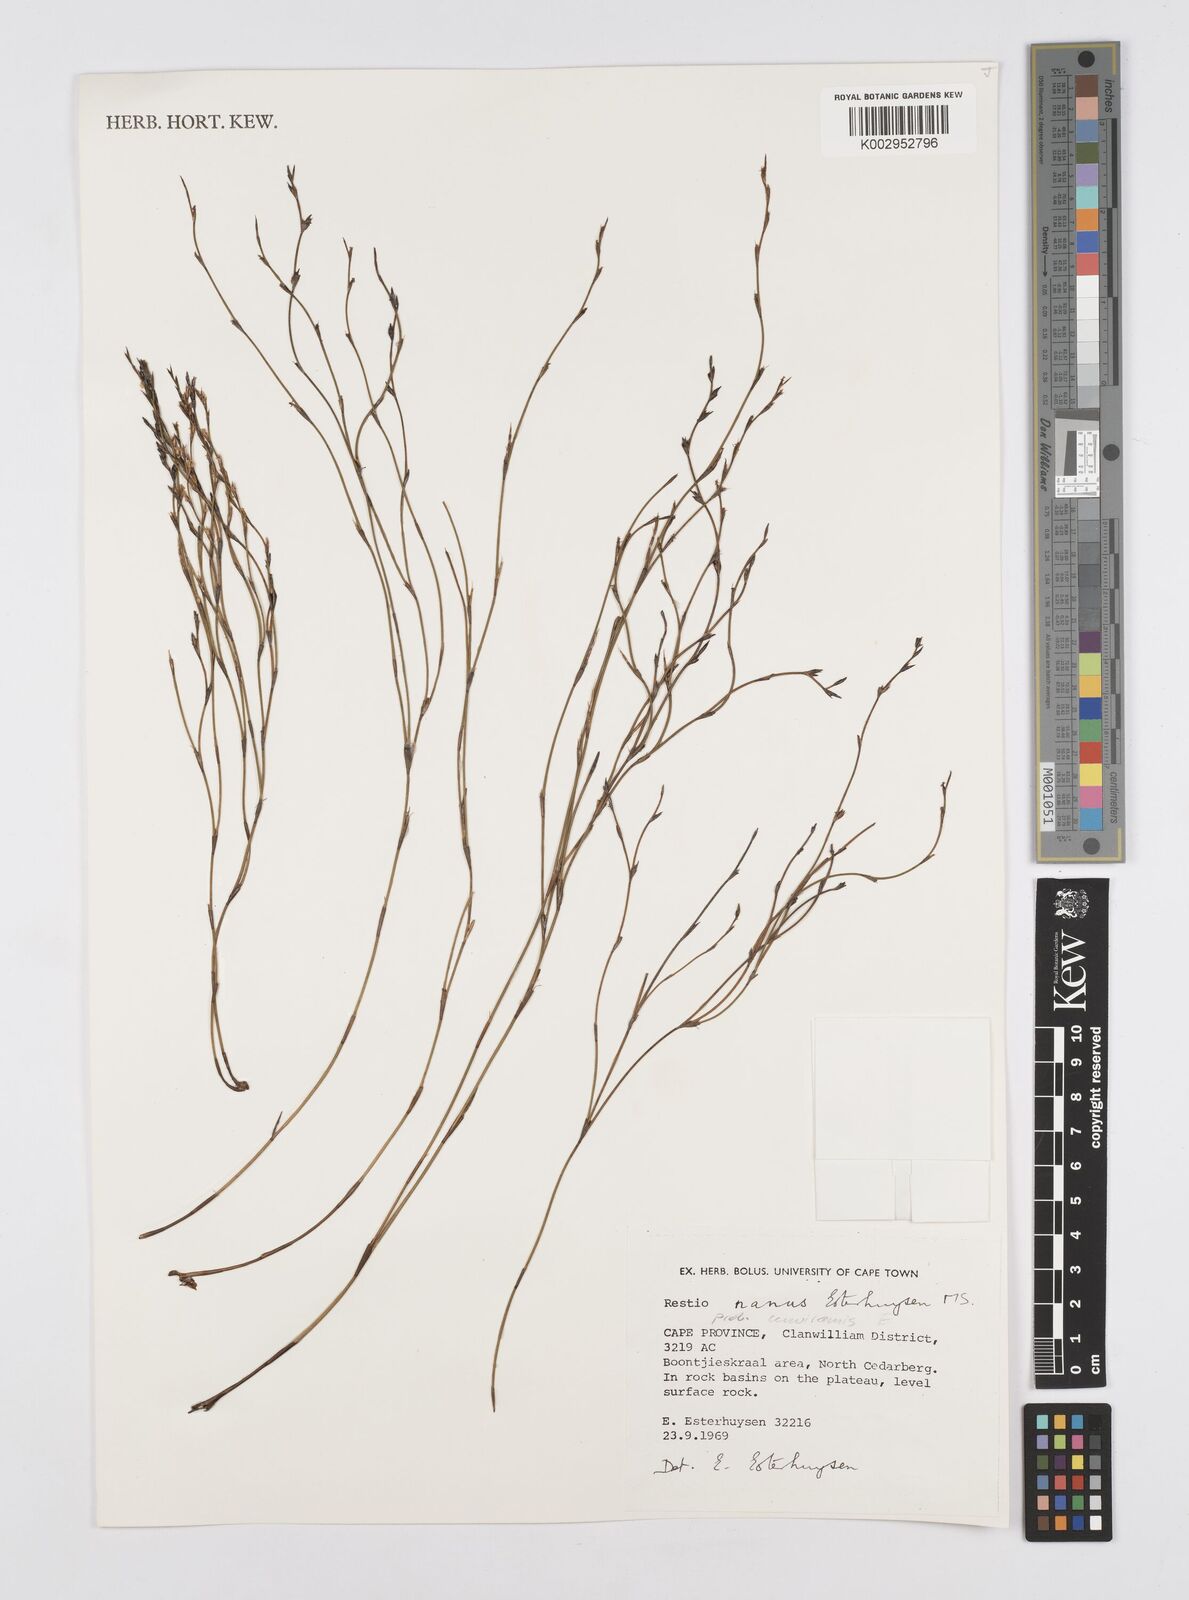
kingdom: Plantae
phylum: Tracheophyta
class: Liliopsida
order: Poales
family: Restionaceae
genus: Restio
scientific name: Restio nanus
